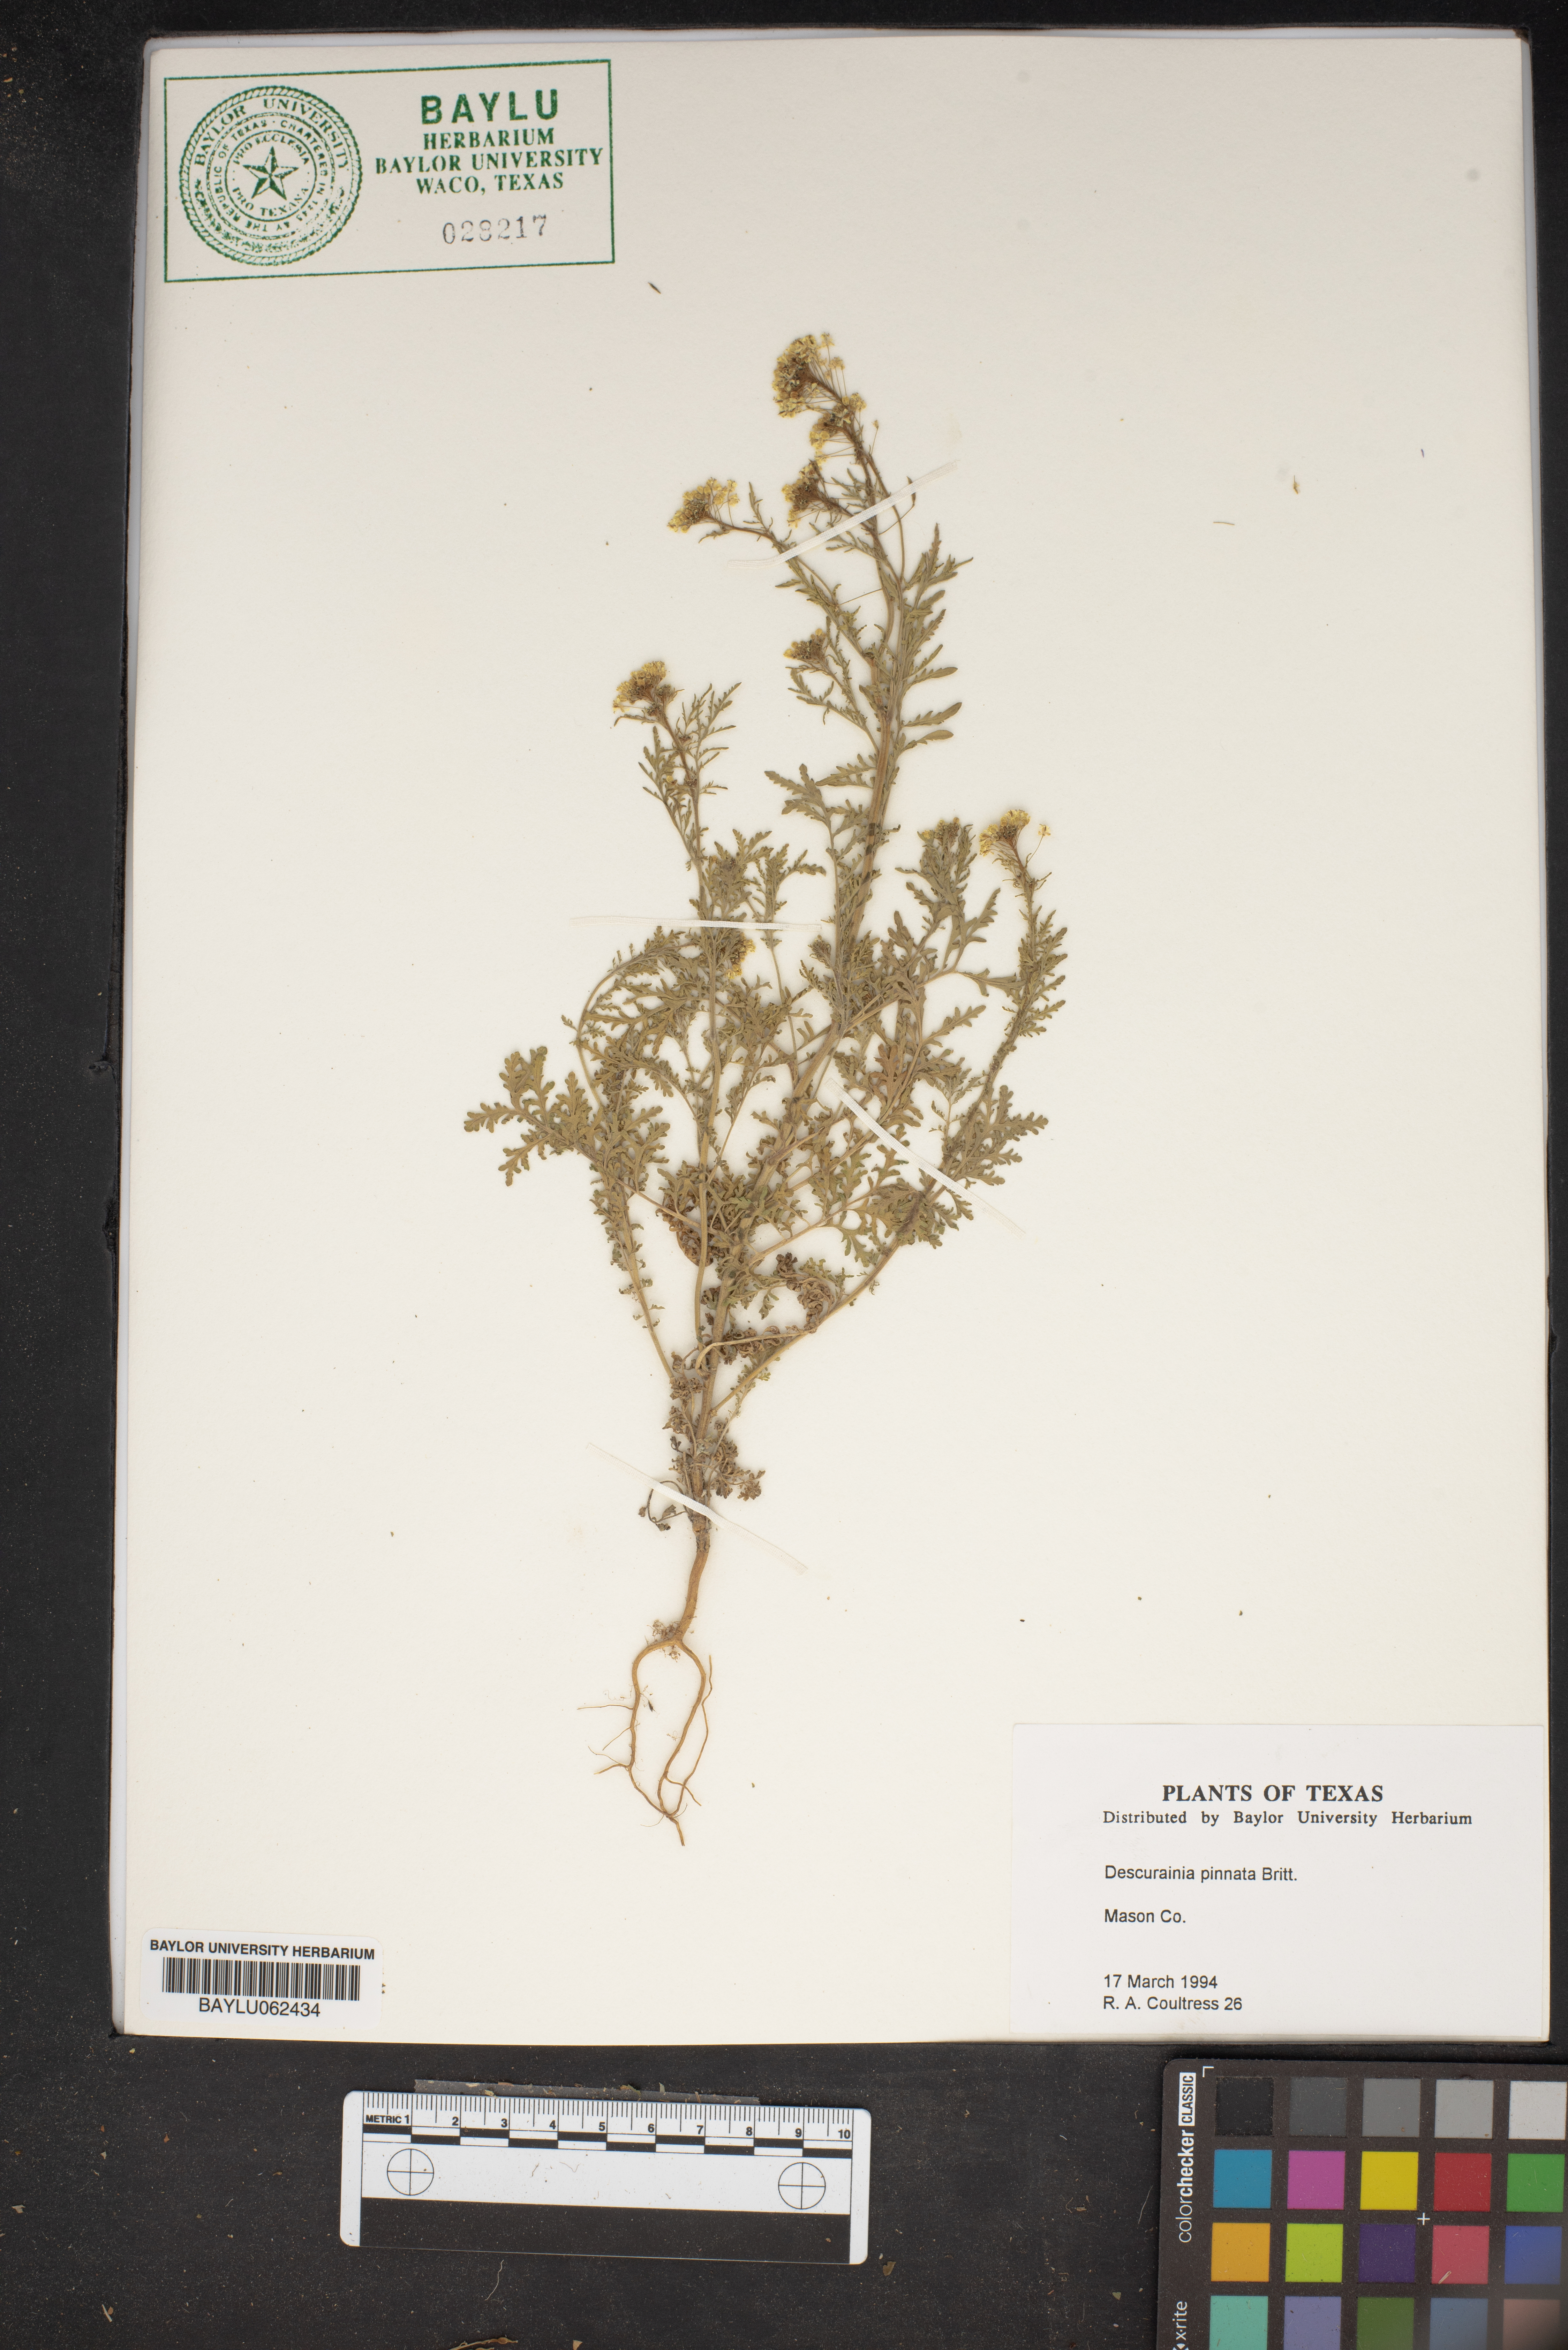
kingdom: Plantae
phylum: Tracheophyta
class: Magnoliopsida
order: Brassicales
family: Brassicaceae
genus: Descurainia
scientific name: Descurainia pinnata
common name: Western tansy mustard
